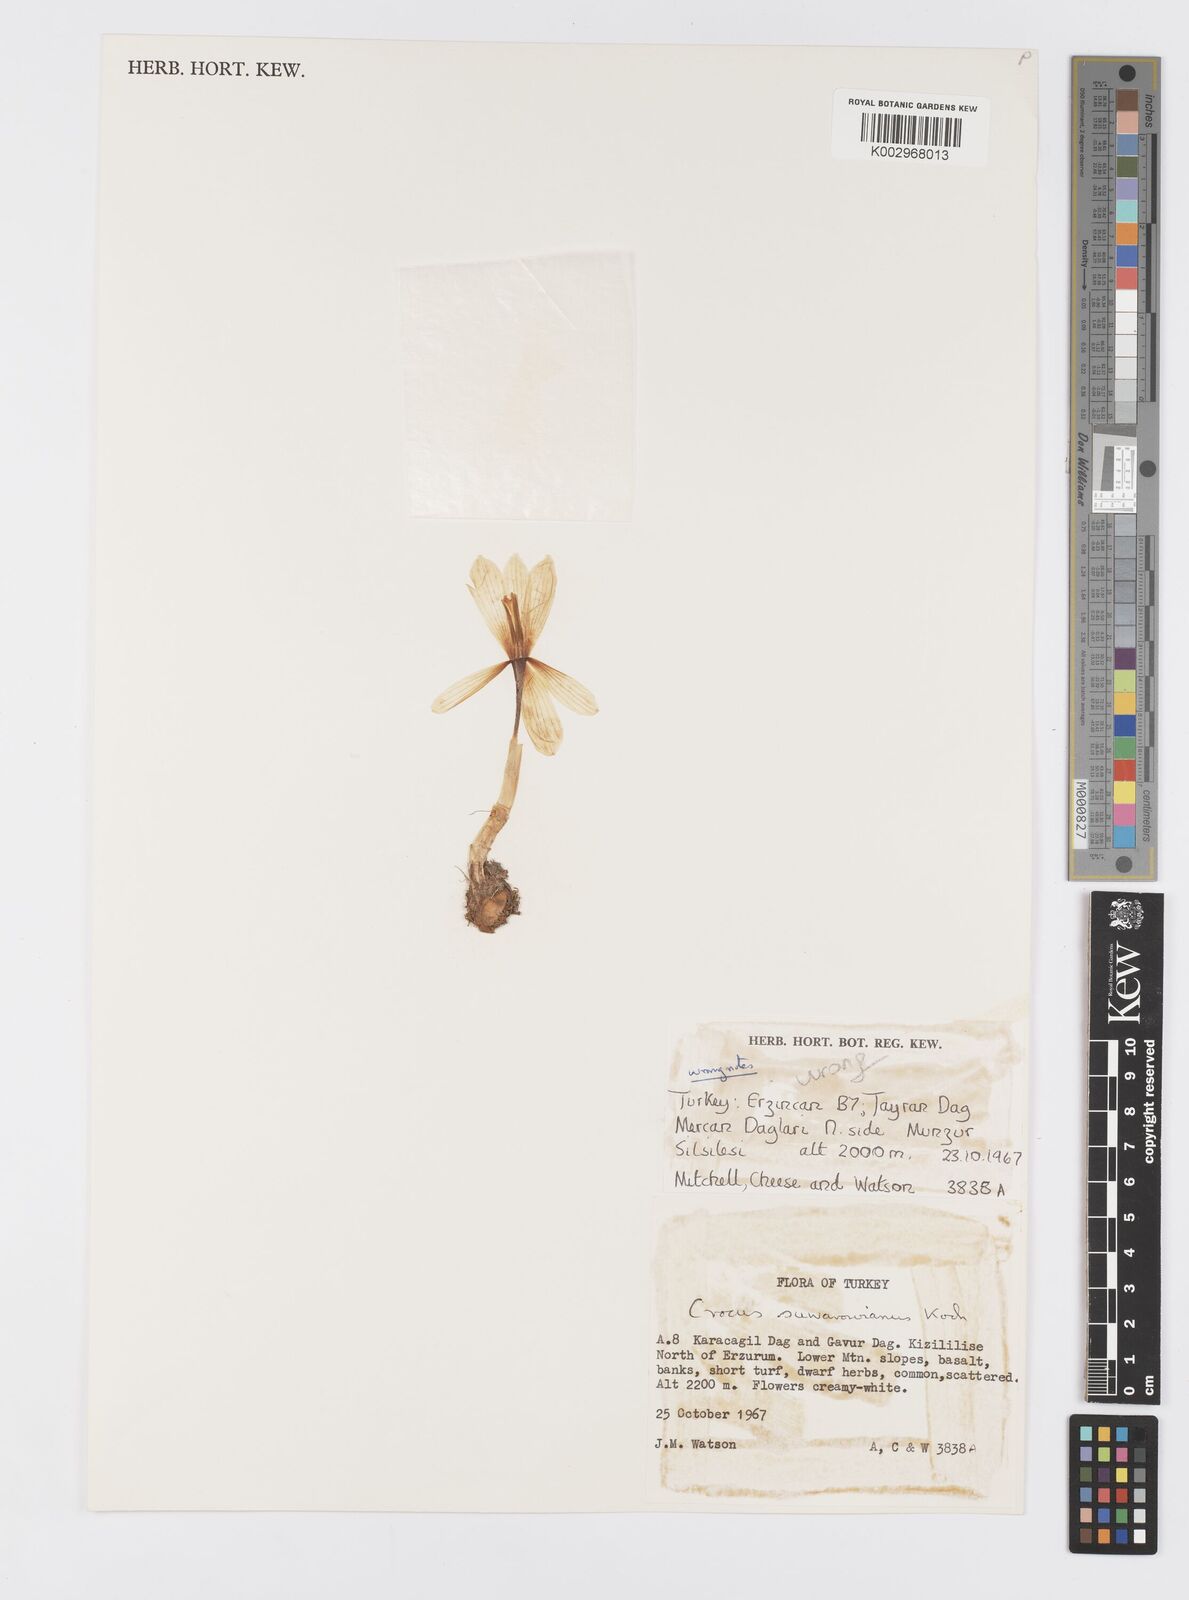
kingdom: Plantae
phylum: Tracheophyta
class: Liliopsida
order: Asparagales
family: Iridaceae
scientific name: Iridaceae
